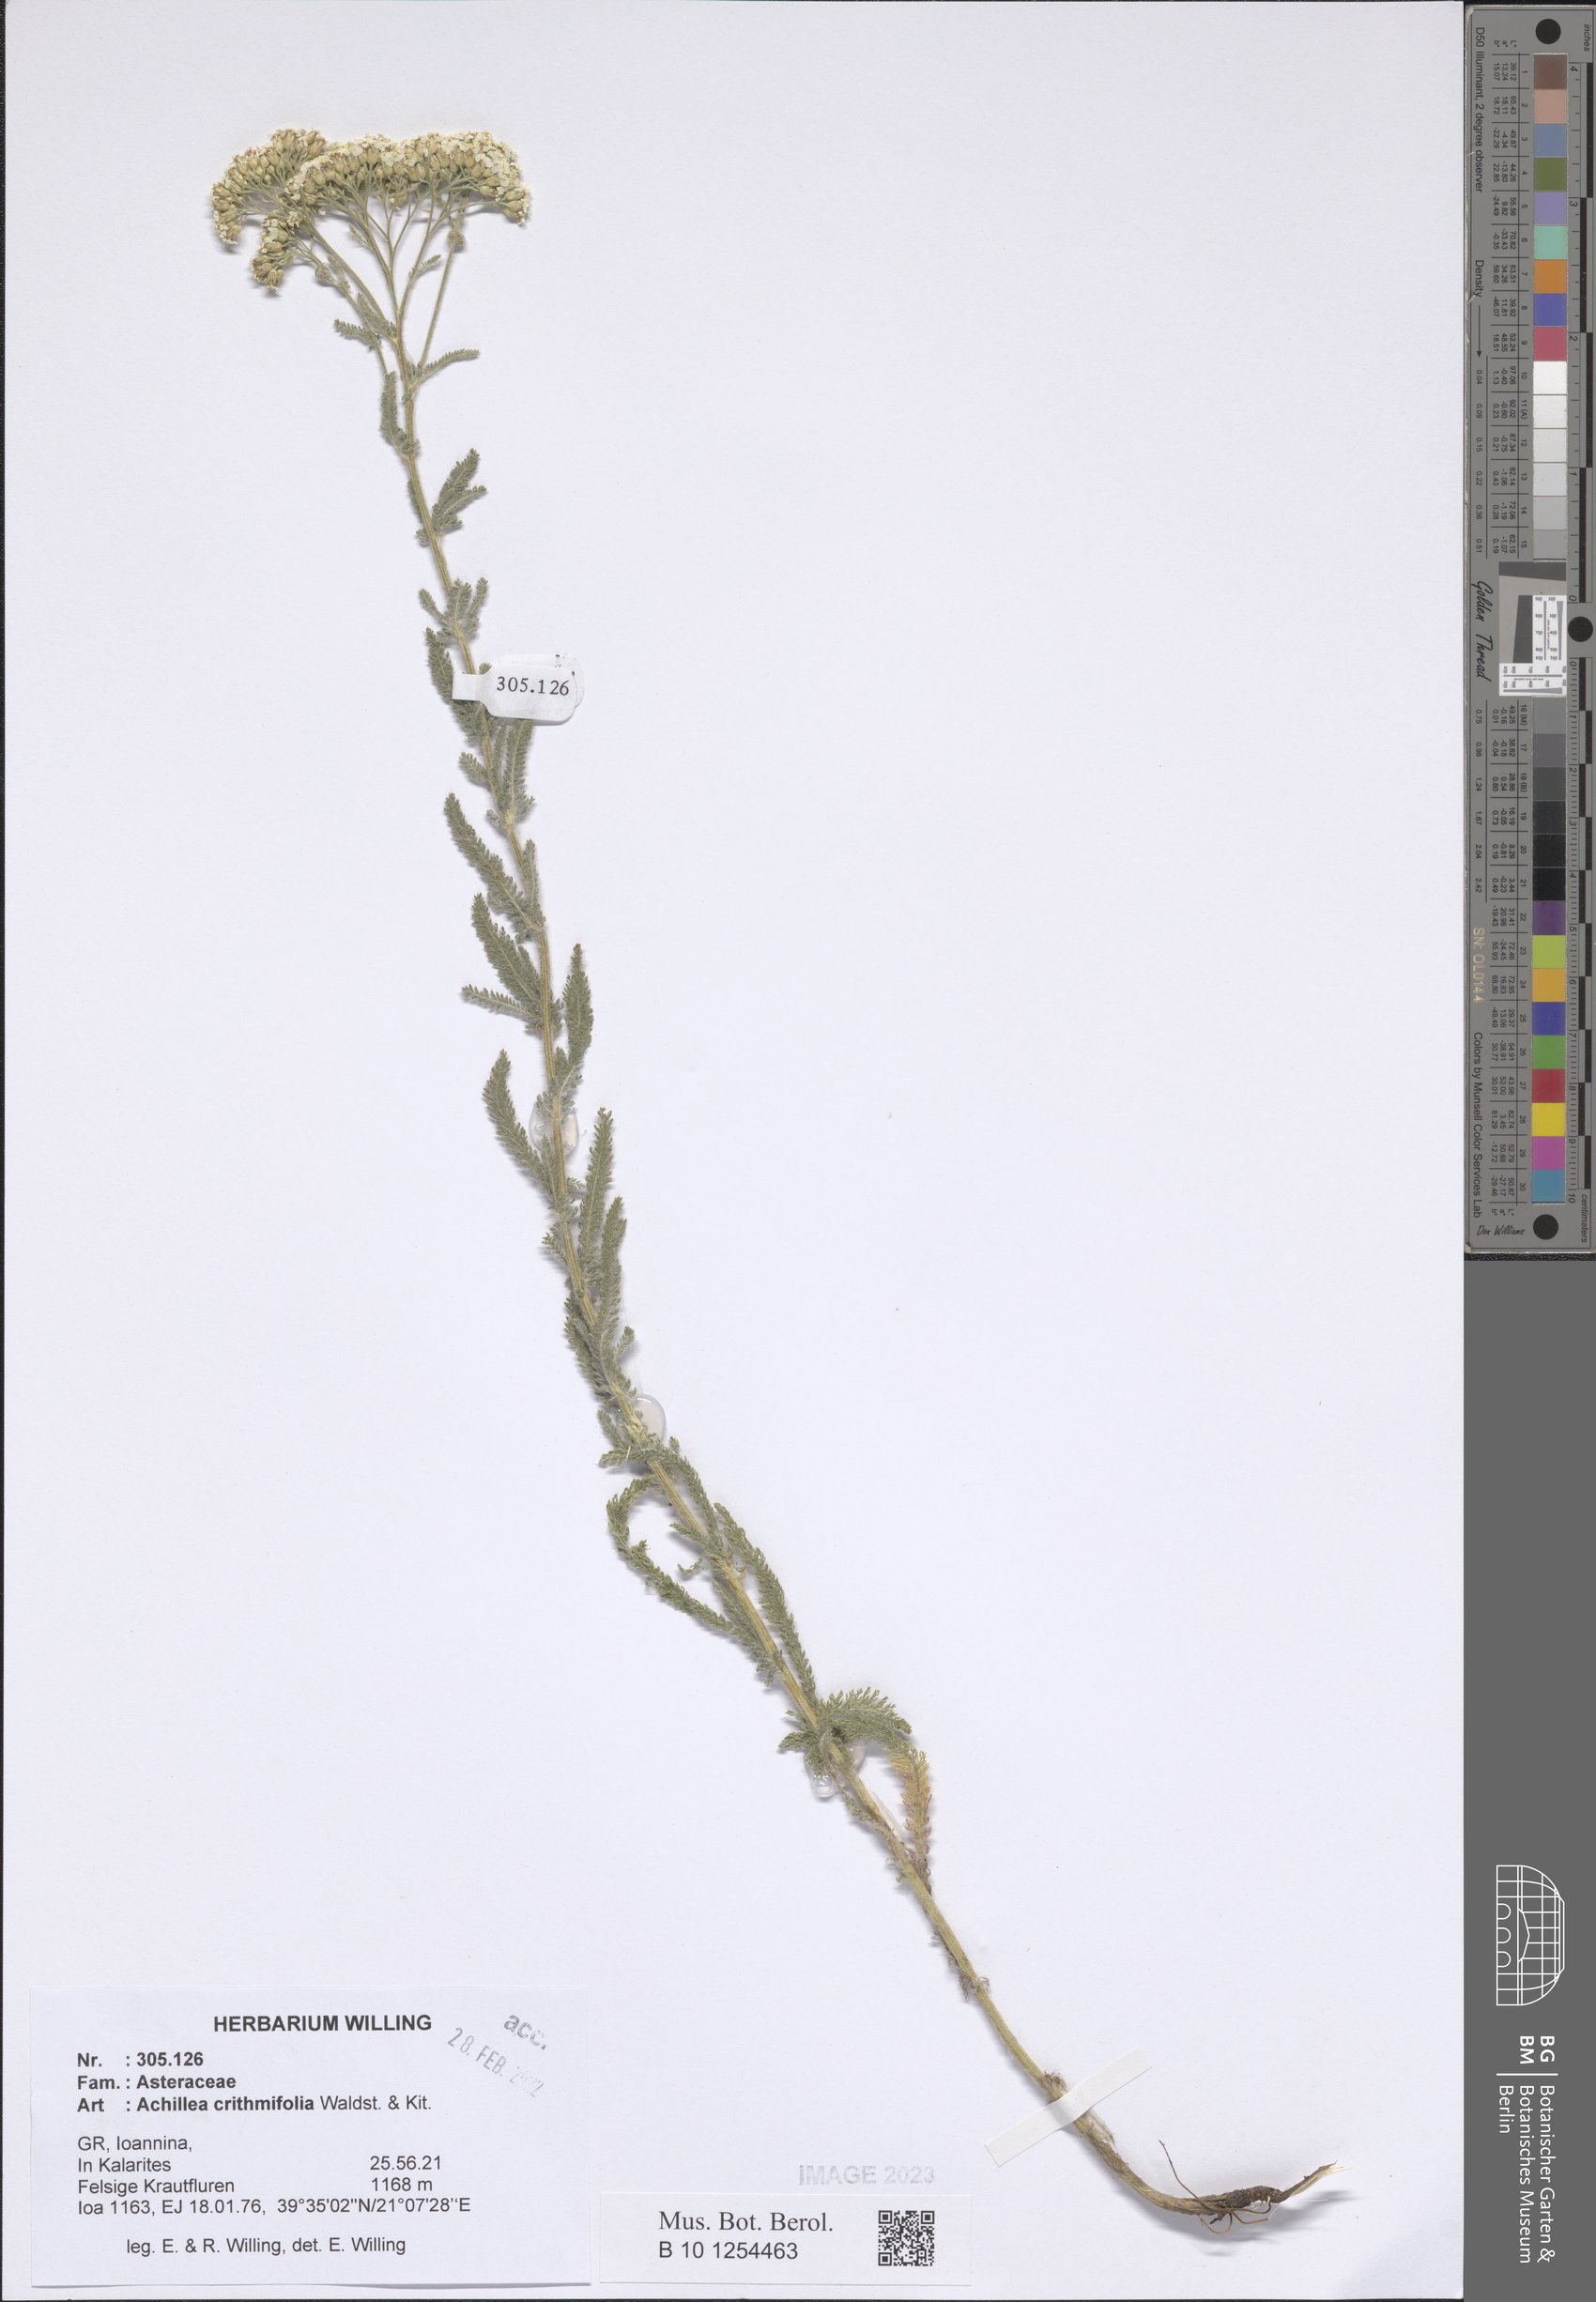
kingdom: Plantae
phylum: Tracheophyta
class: Magnoliopsida
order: Asterales
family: Asteraceae
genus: Achillea
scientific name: Achillea crithmifolia
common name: Yarrow
